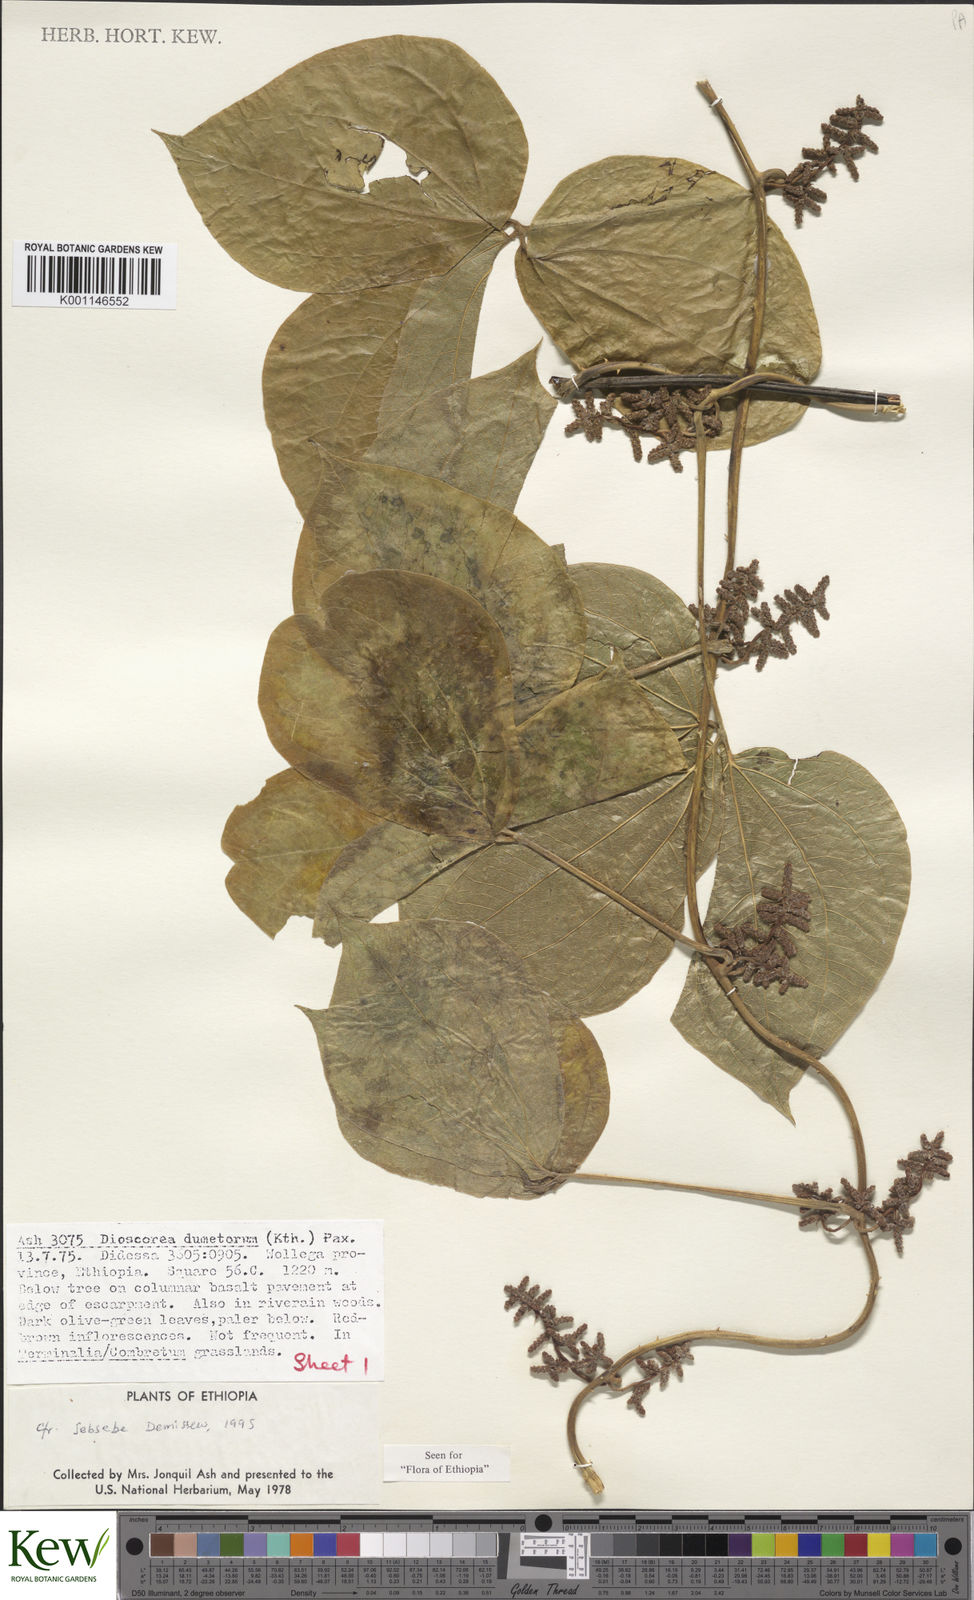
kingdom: Plantae
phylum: Tracheophyta
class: Liliopsida
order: Dioscoreales
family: Dioscoreaceae
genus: Dioscorea
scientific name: Dioscorea dumetorum
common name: African bitter yam
